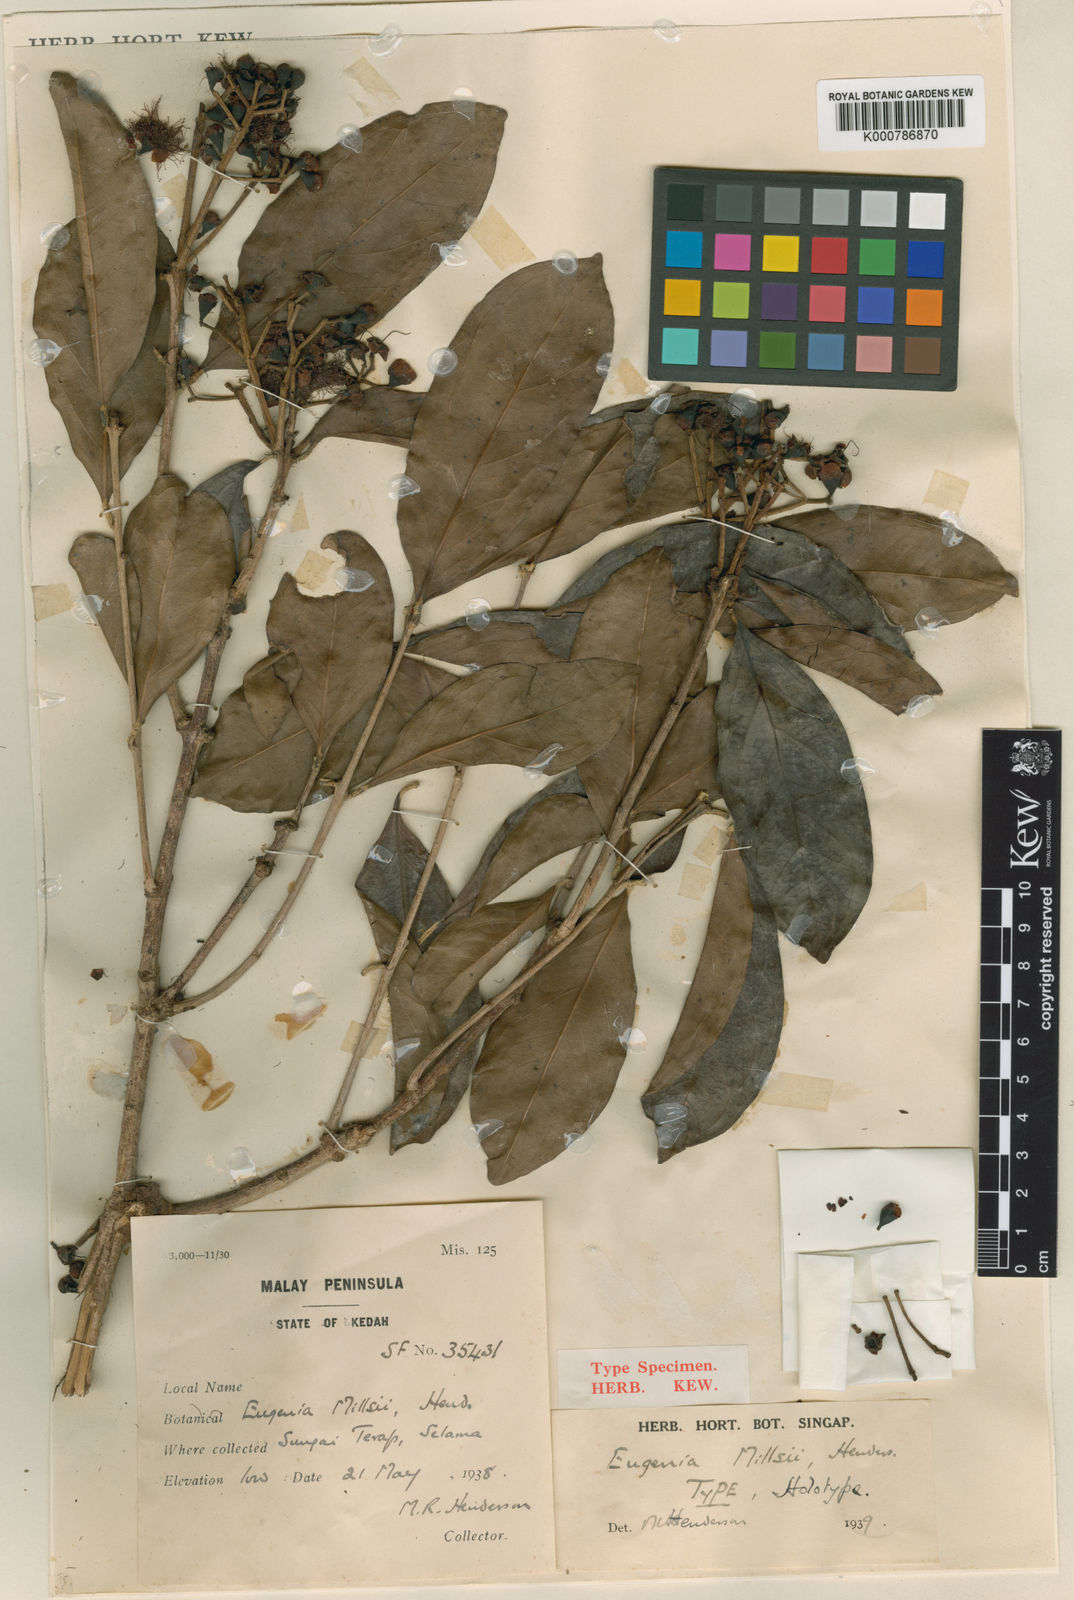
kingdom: Plantae
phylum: Tracheophyta
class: Magnoliopsida
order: Myrtales
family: Myrtaceae
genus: Syzygium
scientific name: Syzygium millsii
